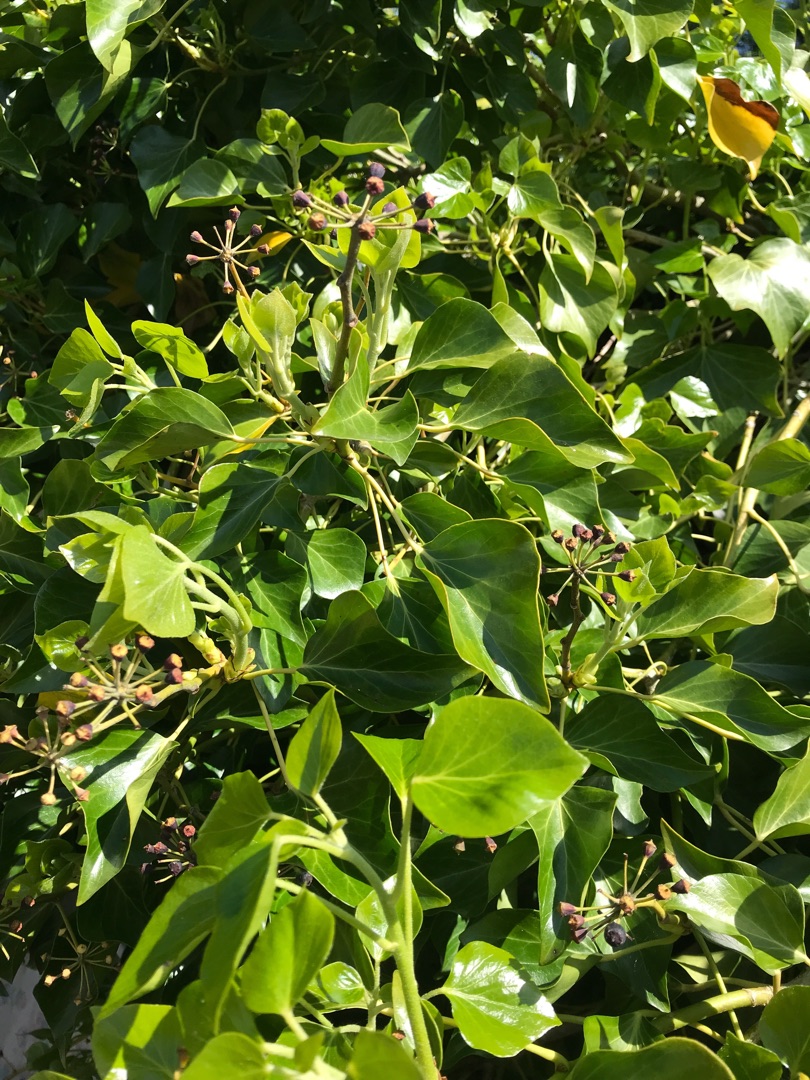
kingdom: Plantae
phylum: Tracheophyta
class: Magnoliopsida
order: Apiales
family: Araliaceae
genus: Hedera
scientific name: Hedera
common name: Vedbendslægten
